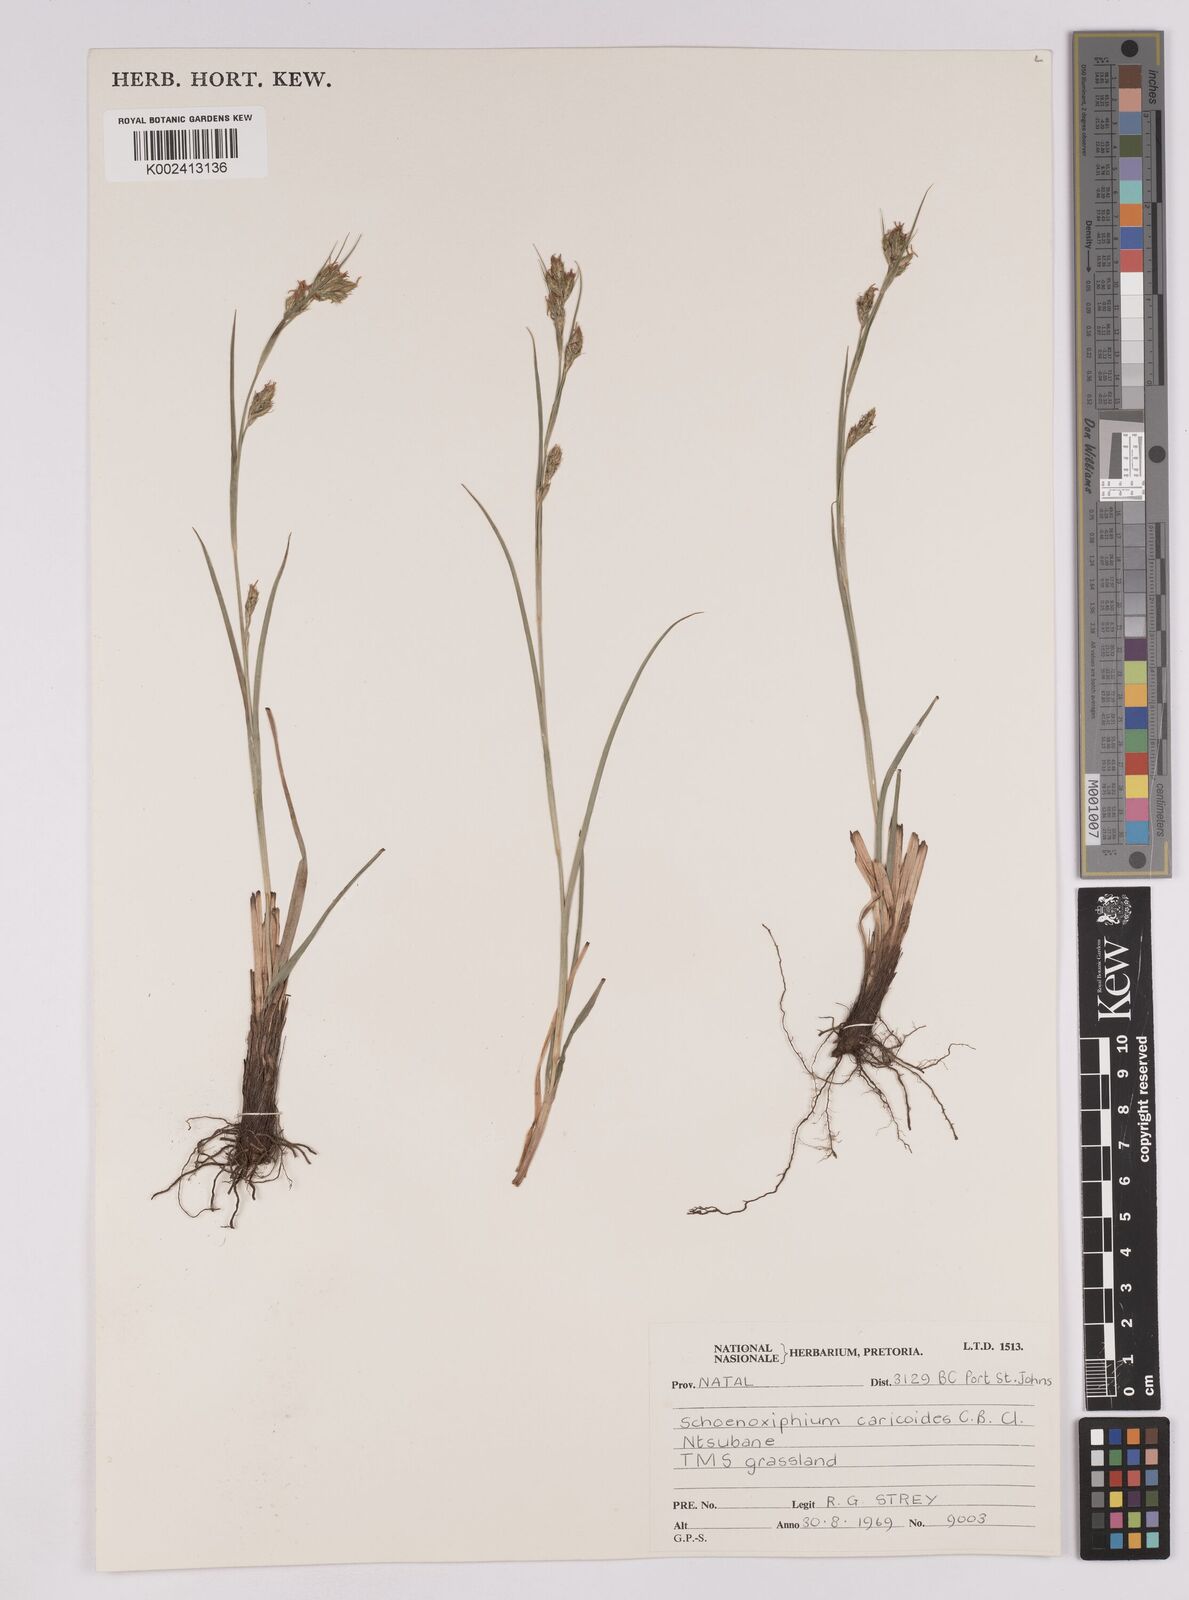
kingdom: Plantae
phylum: Tracheophyta
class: Liliopsida
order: Poales
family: Cyperaceae
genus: Carex
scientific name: Carex spartea
